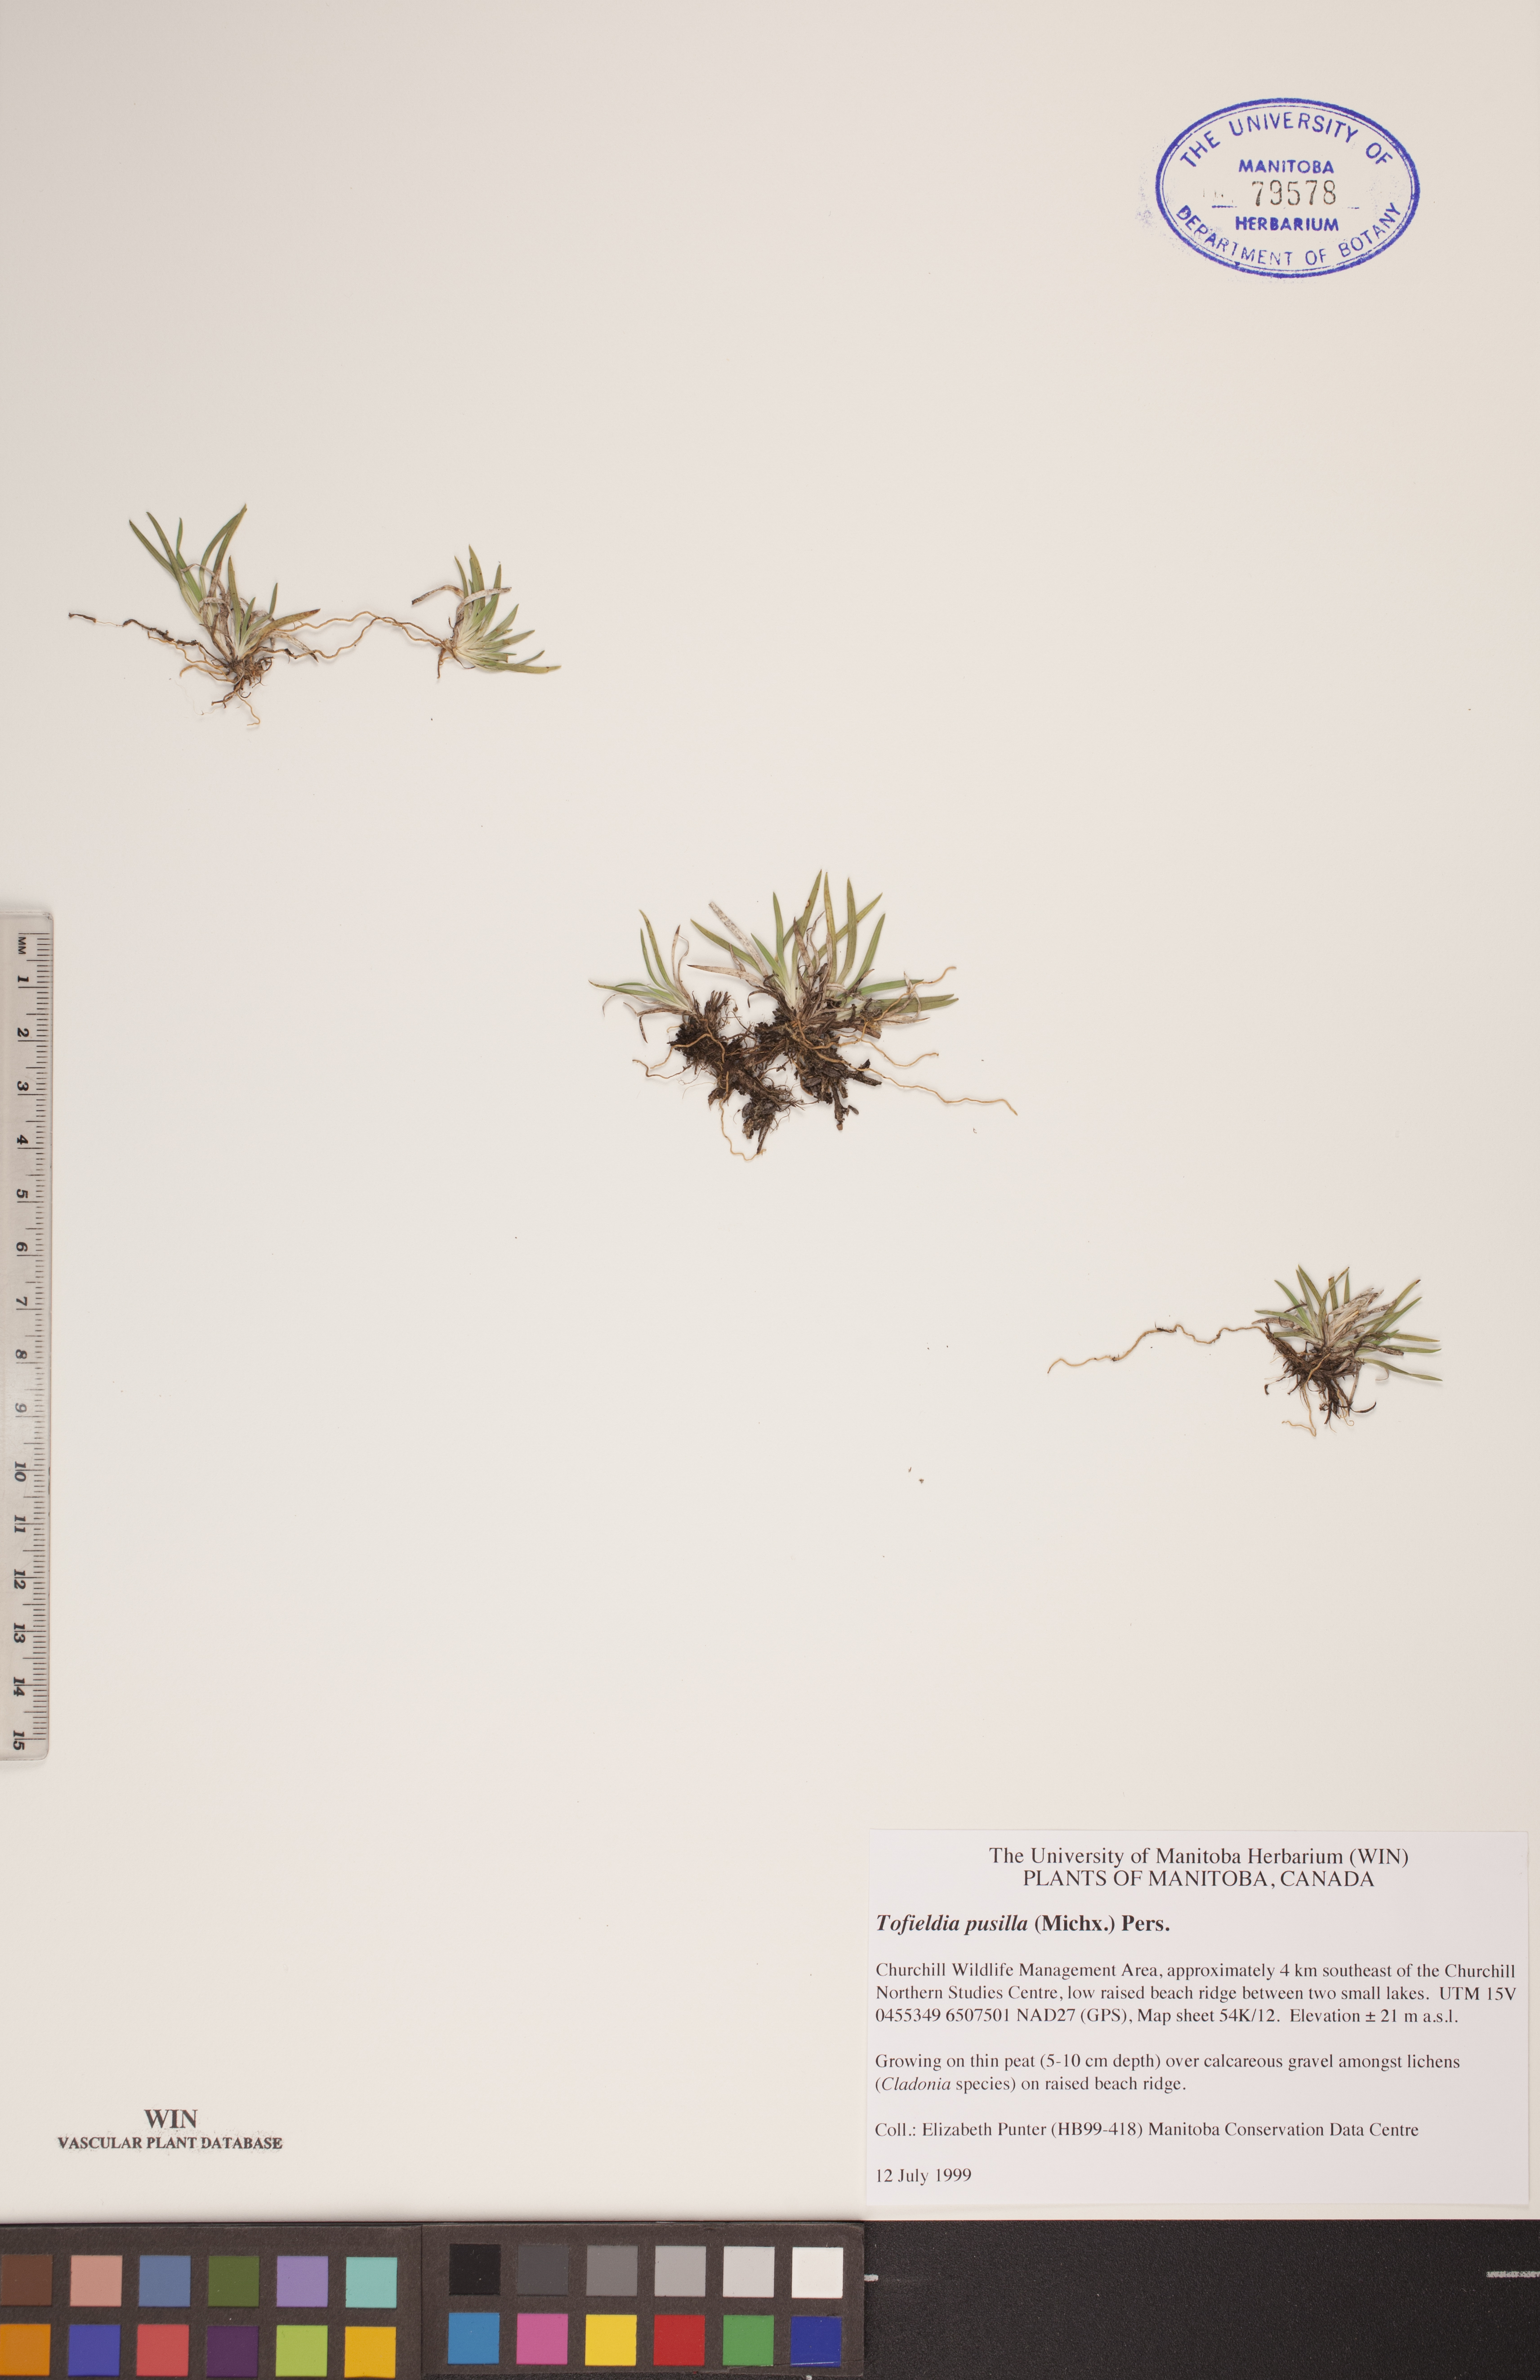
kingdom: Plantae
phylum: Tracheophyta
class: Liliopsida
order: Alismatales
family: Tofieldiaceae
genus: Tofieldia
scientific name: Tofieldia pusilla
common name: Scottish false asphodel
